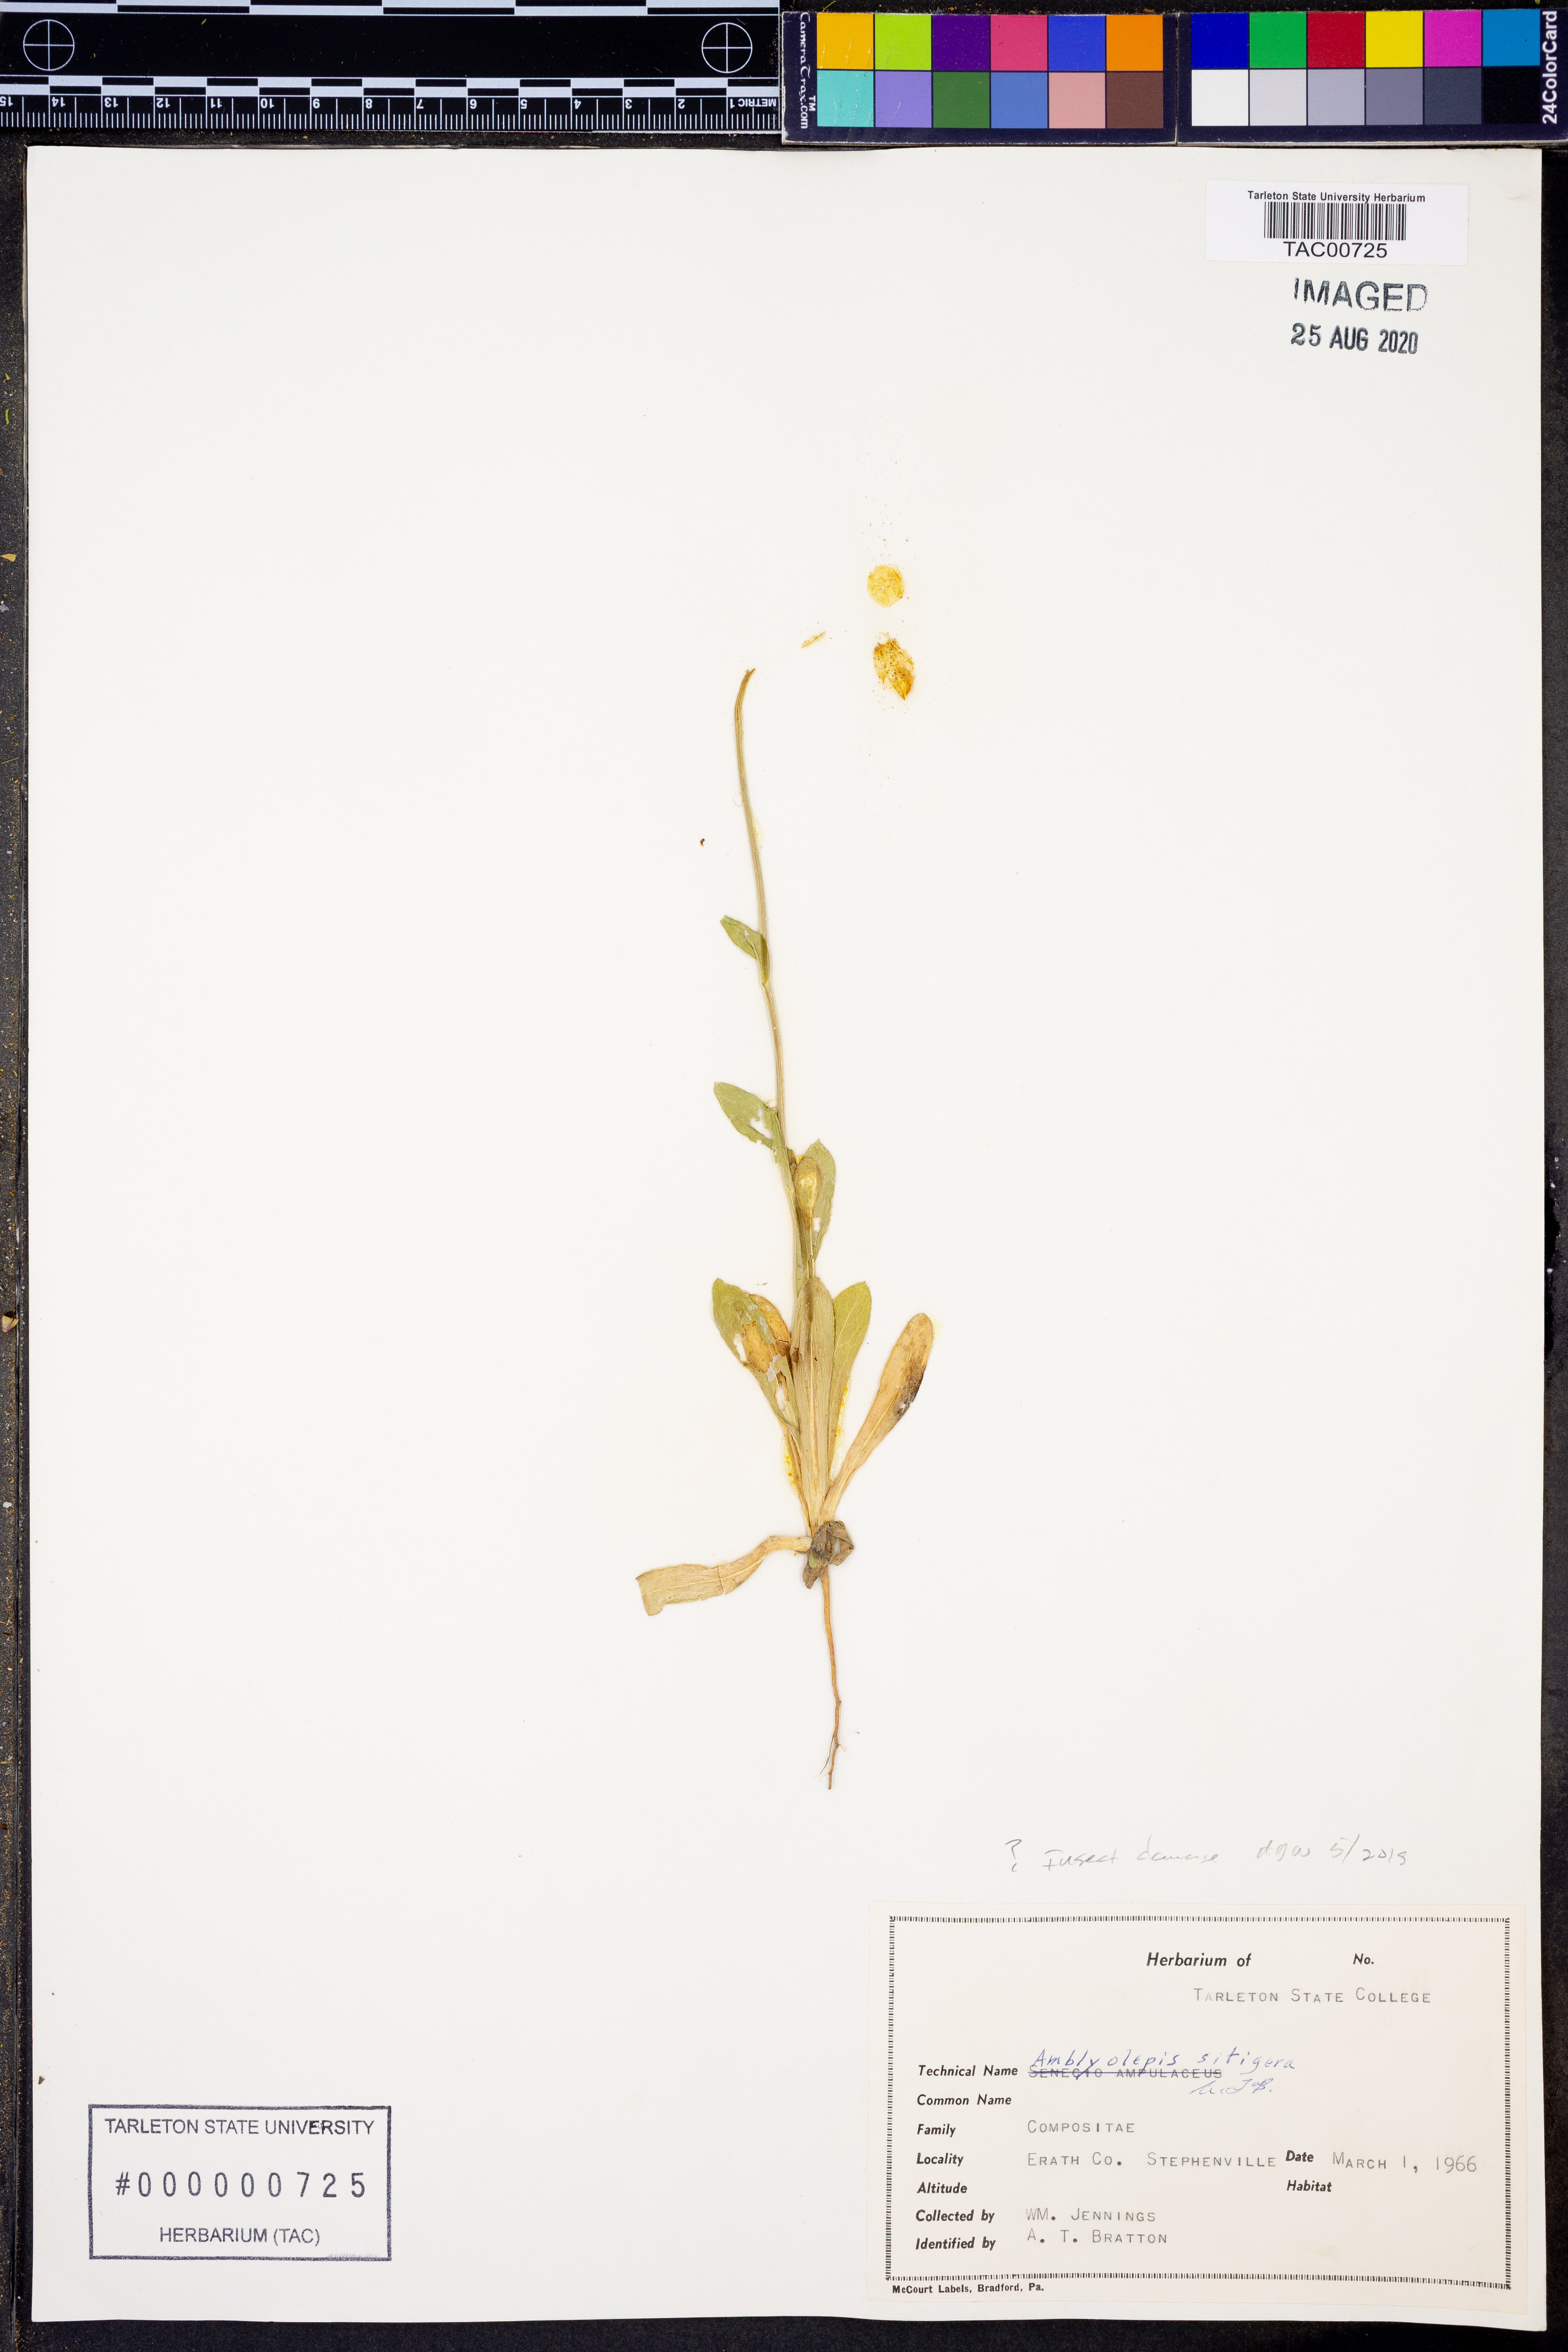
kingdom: Plantae
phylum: Tracheophyta
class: Magnoliopsida
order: Asterales
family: Asteraceae
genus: Amblyolepis
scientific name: Amblyolepis setigera
